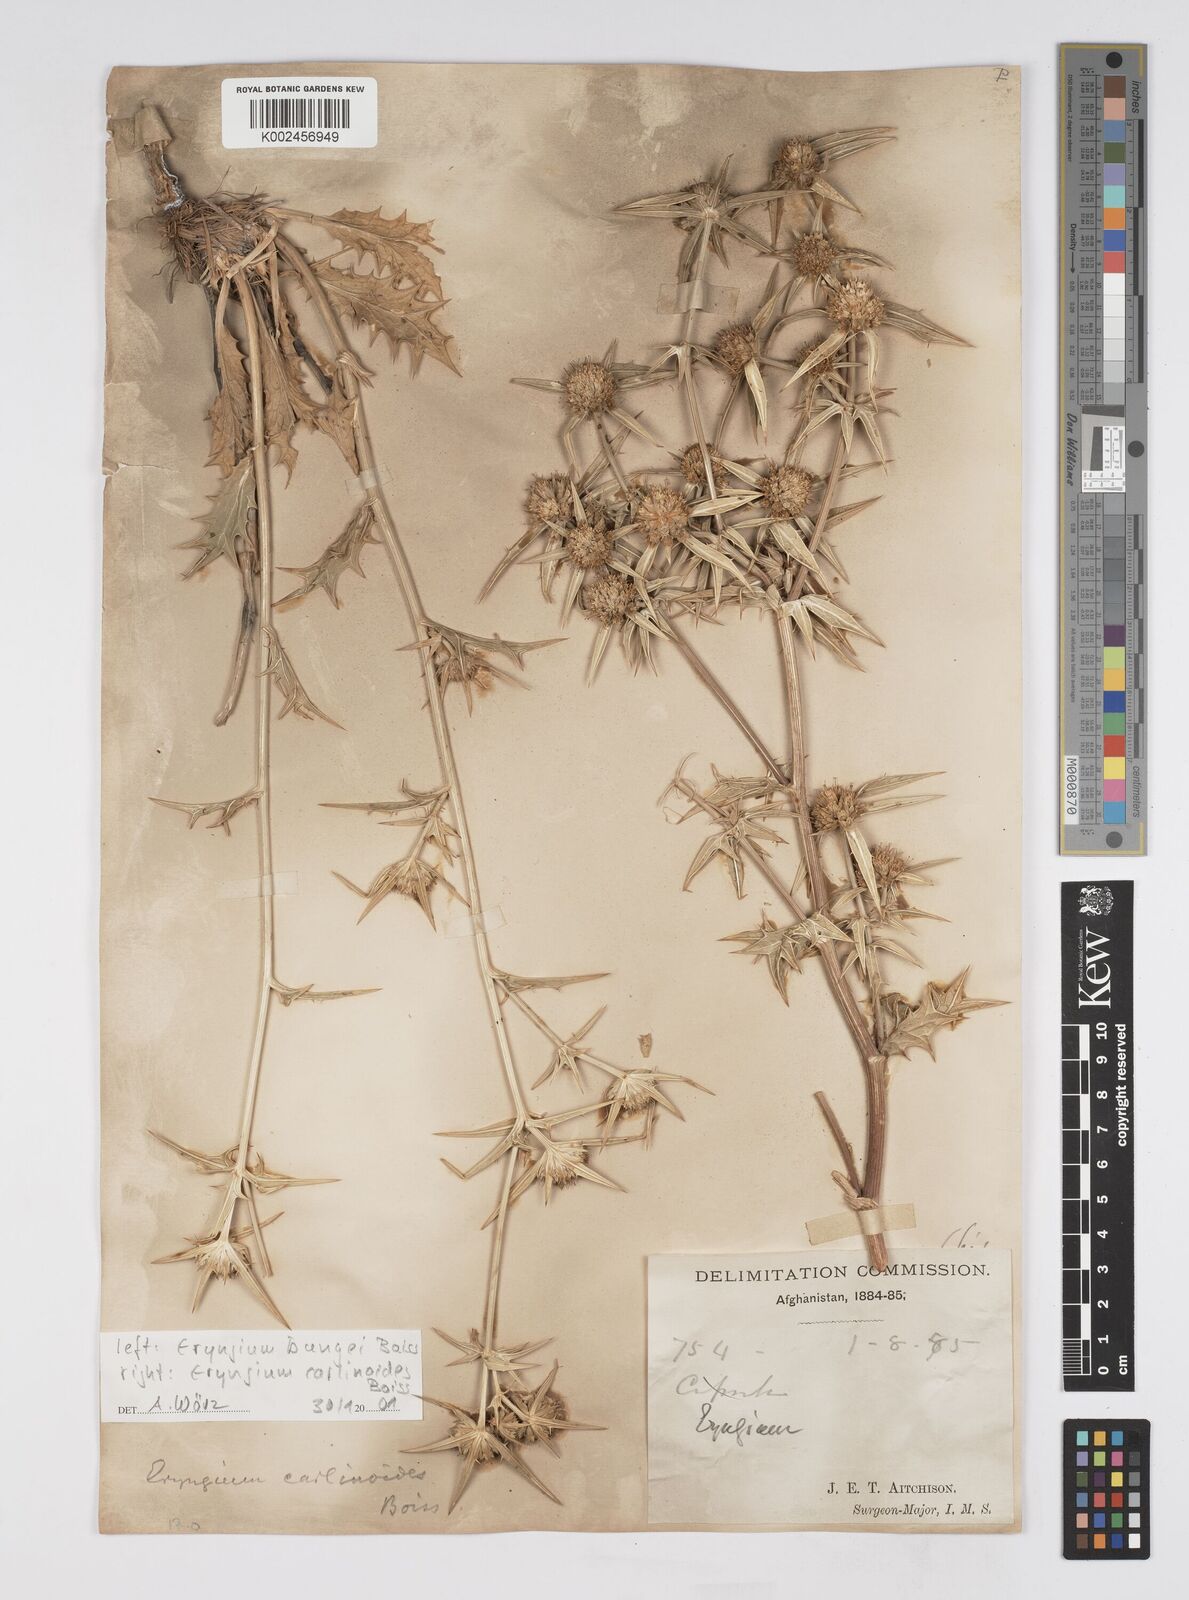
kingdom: Plantae
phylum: Tracheophyta
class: Magnoliopsida
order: Apiales
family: Apiaceae
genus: Eryngium
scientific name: Eryngium bungei
